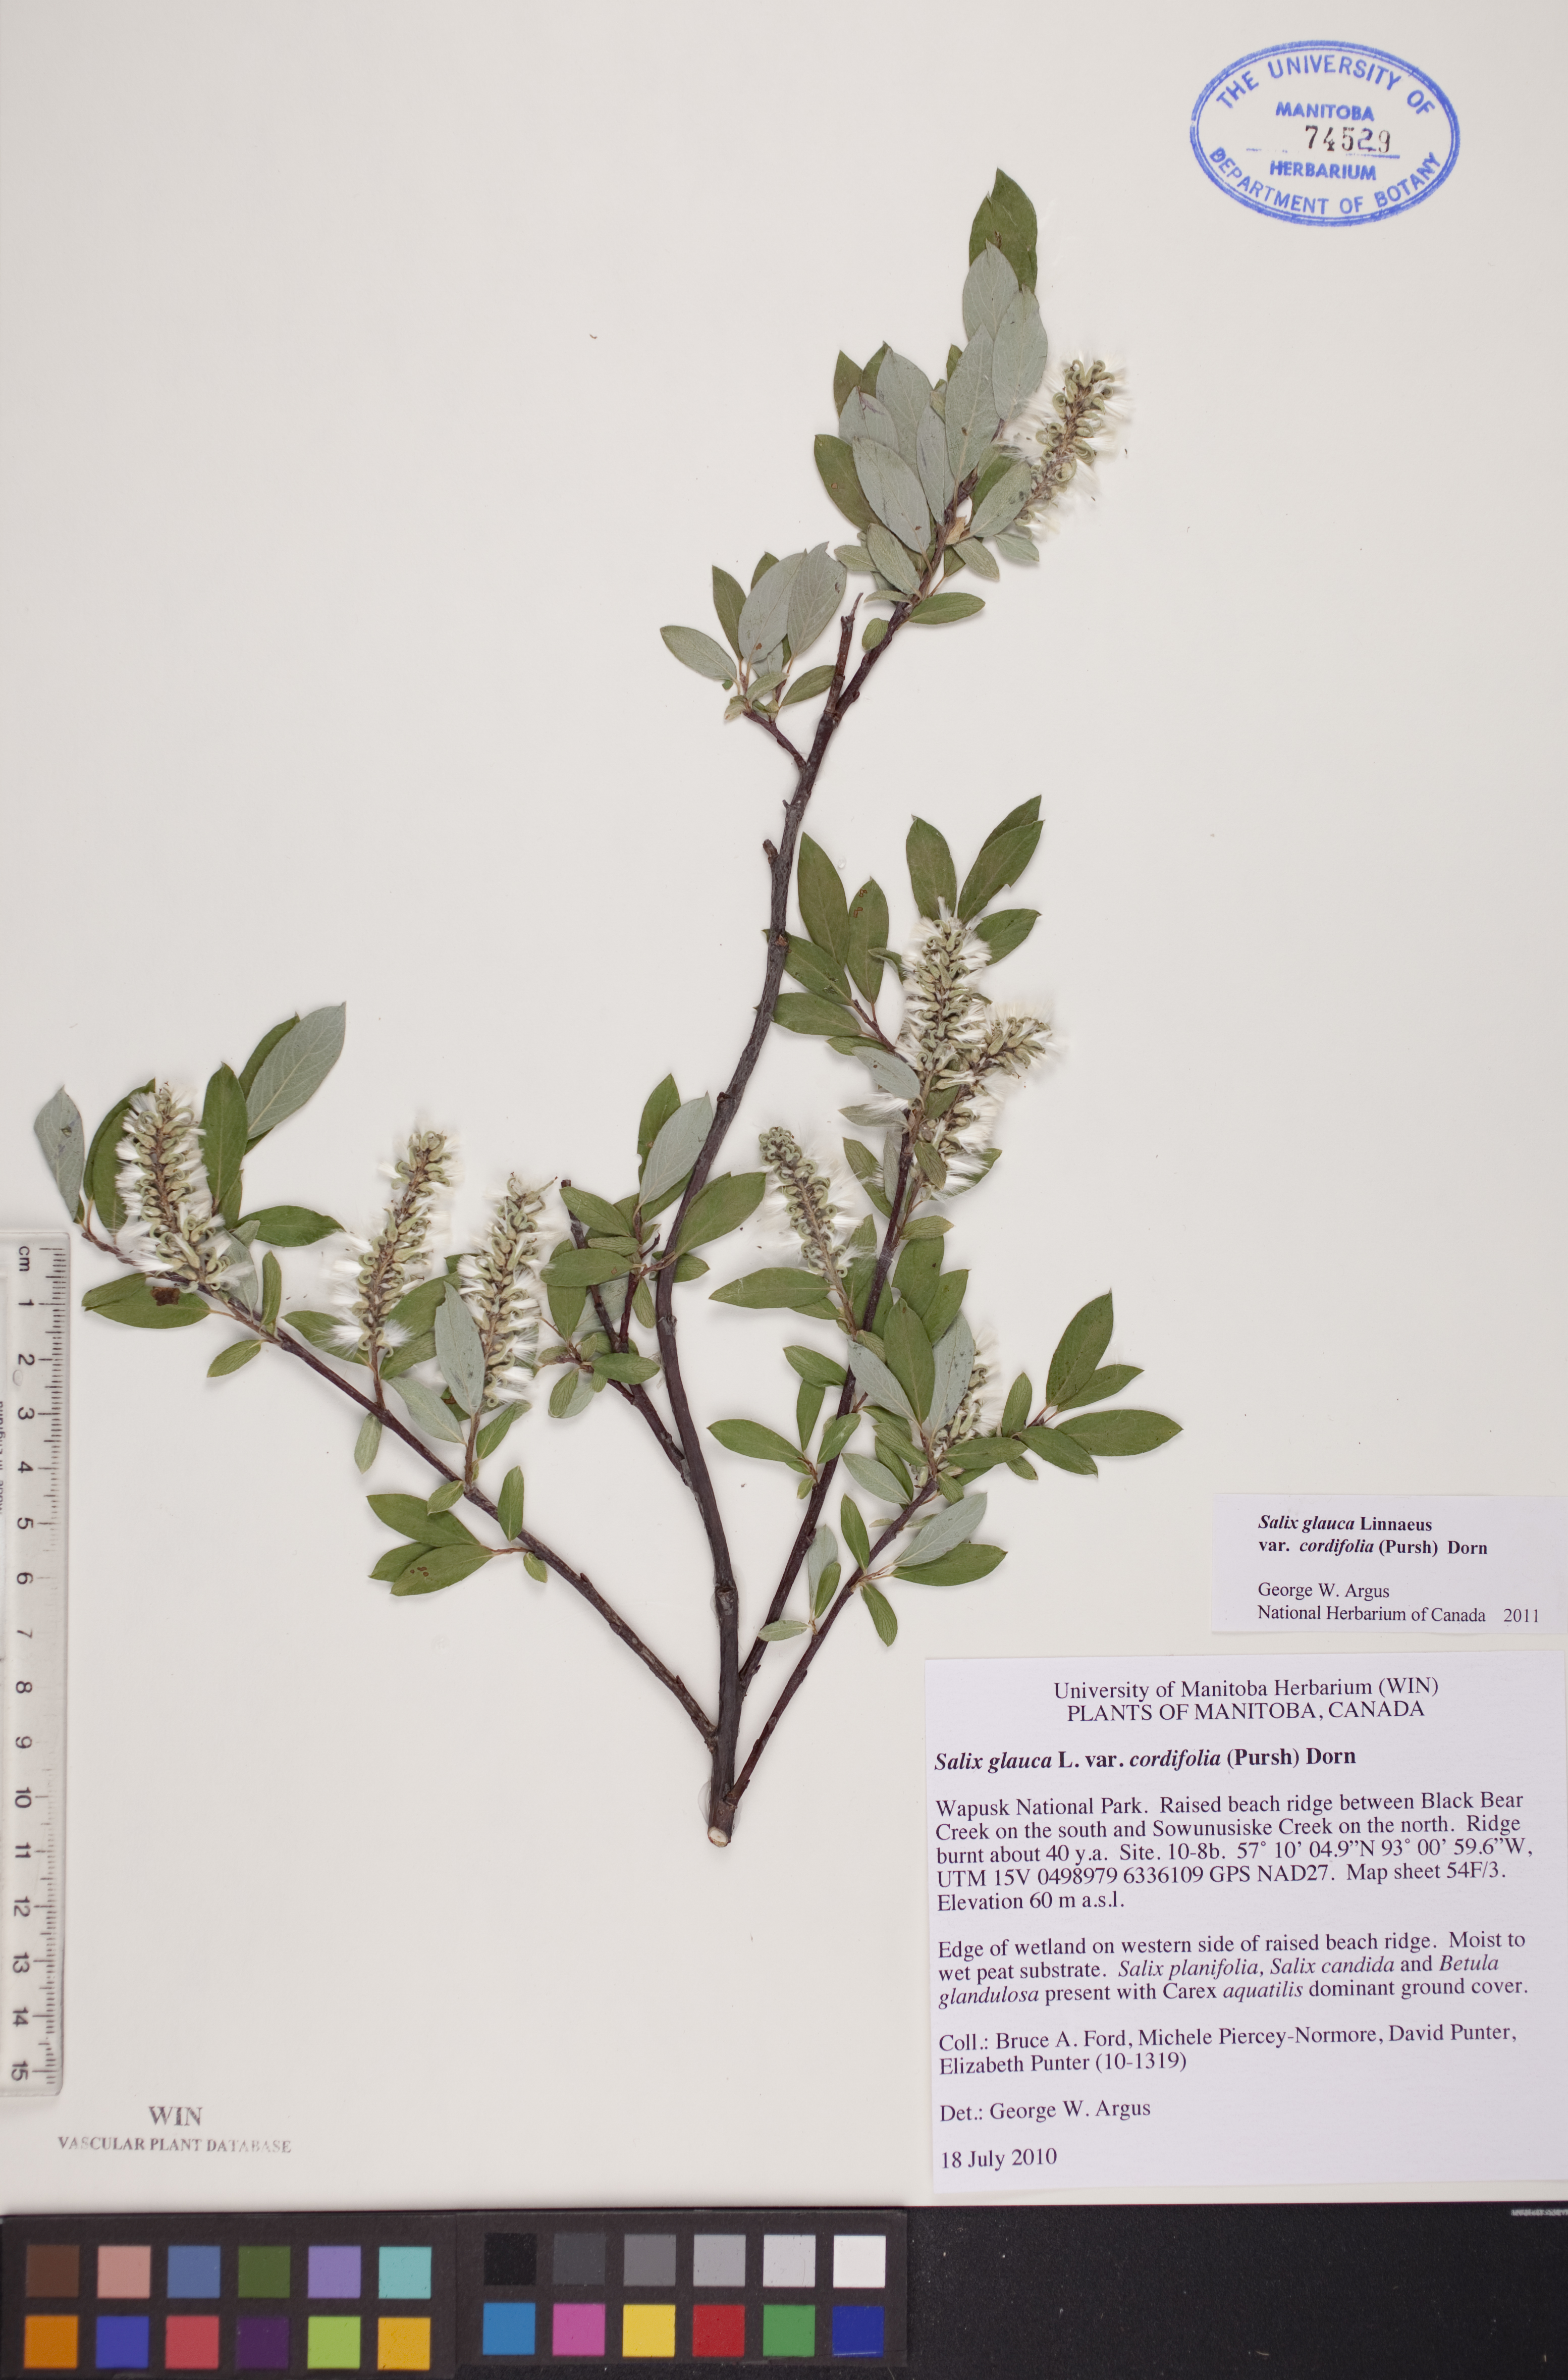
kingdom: Plantae
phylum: Tracheophyta
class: Magnoliopsida
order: Malpighiales
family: Salicaceae
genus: Salix
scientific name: Salix glauca
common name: Glaucous willow
